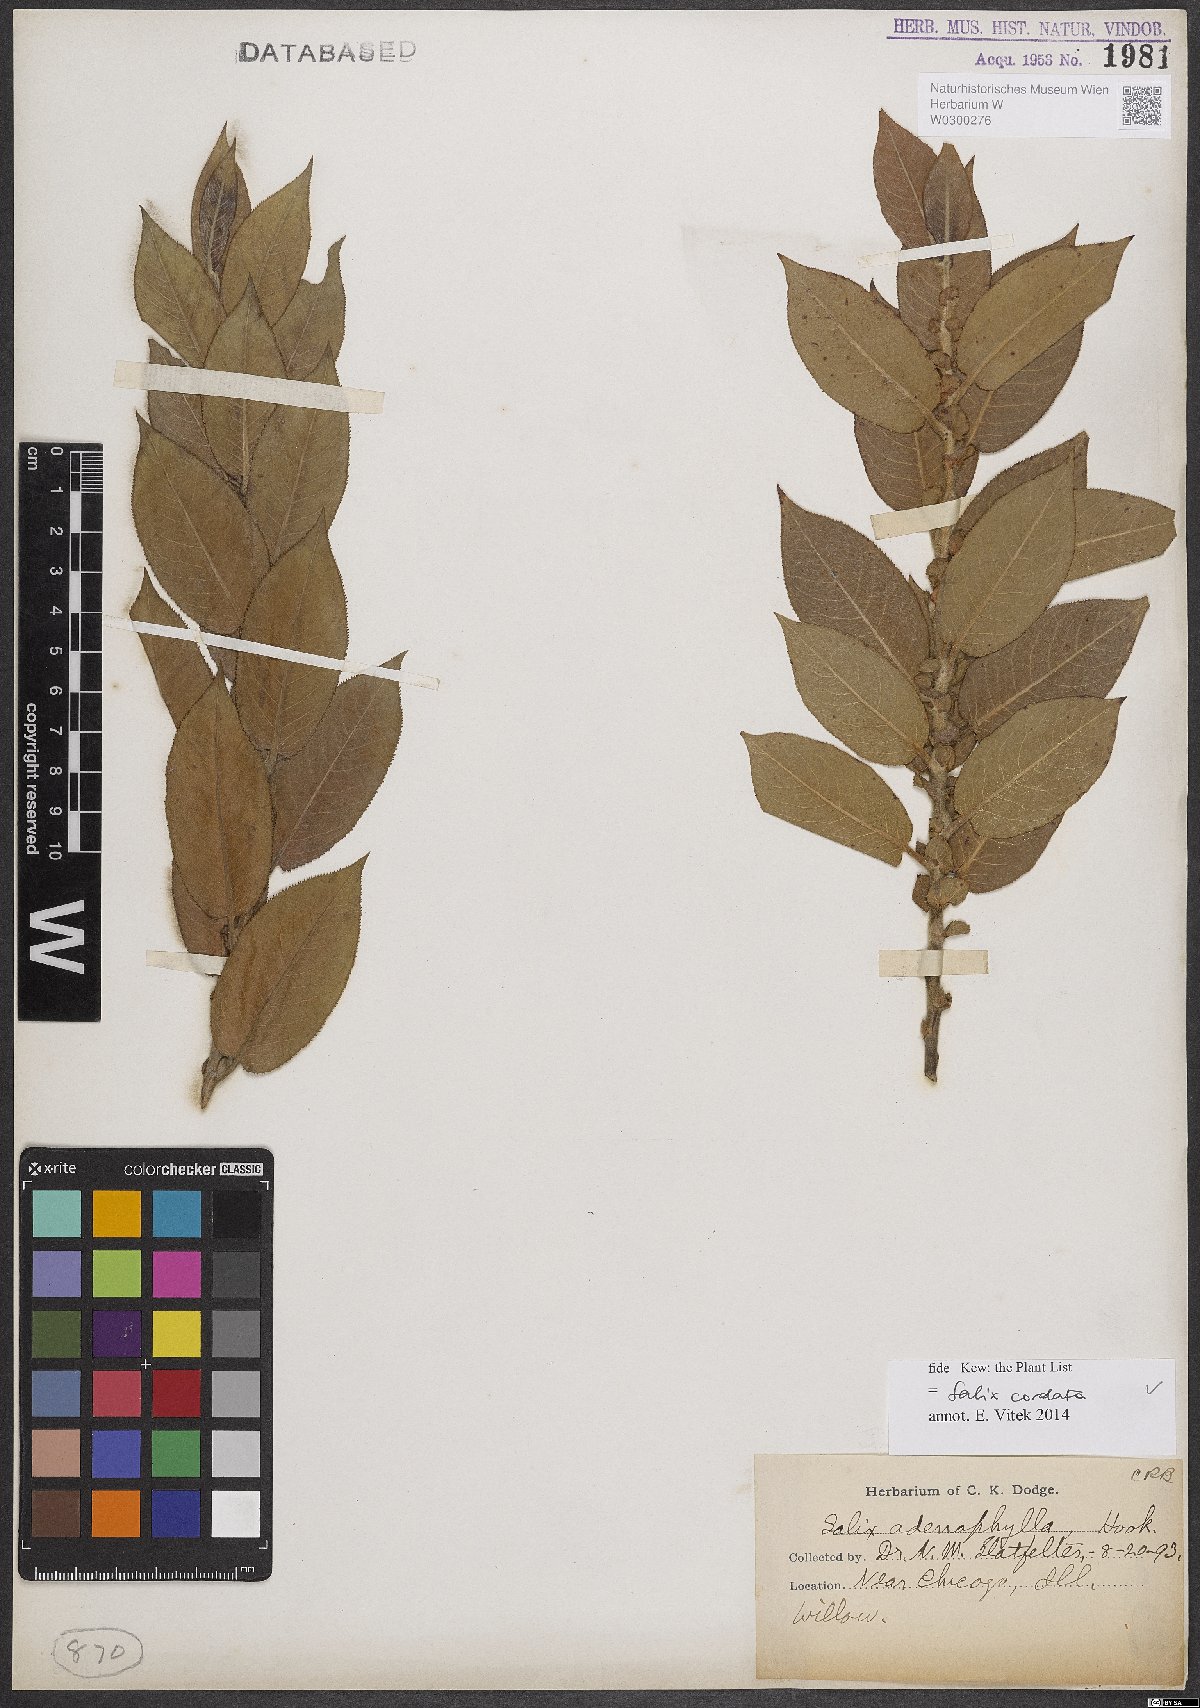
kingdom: Plantae
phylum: Tracheophyta
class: Magnoliopsida
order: Malpighiales
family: Salicaceae
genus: Salix
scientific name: Salix cordata
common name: Heart-leaf willow
